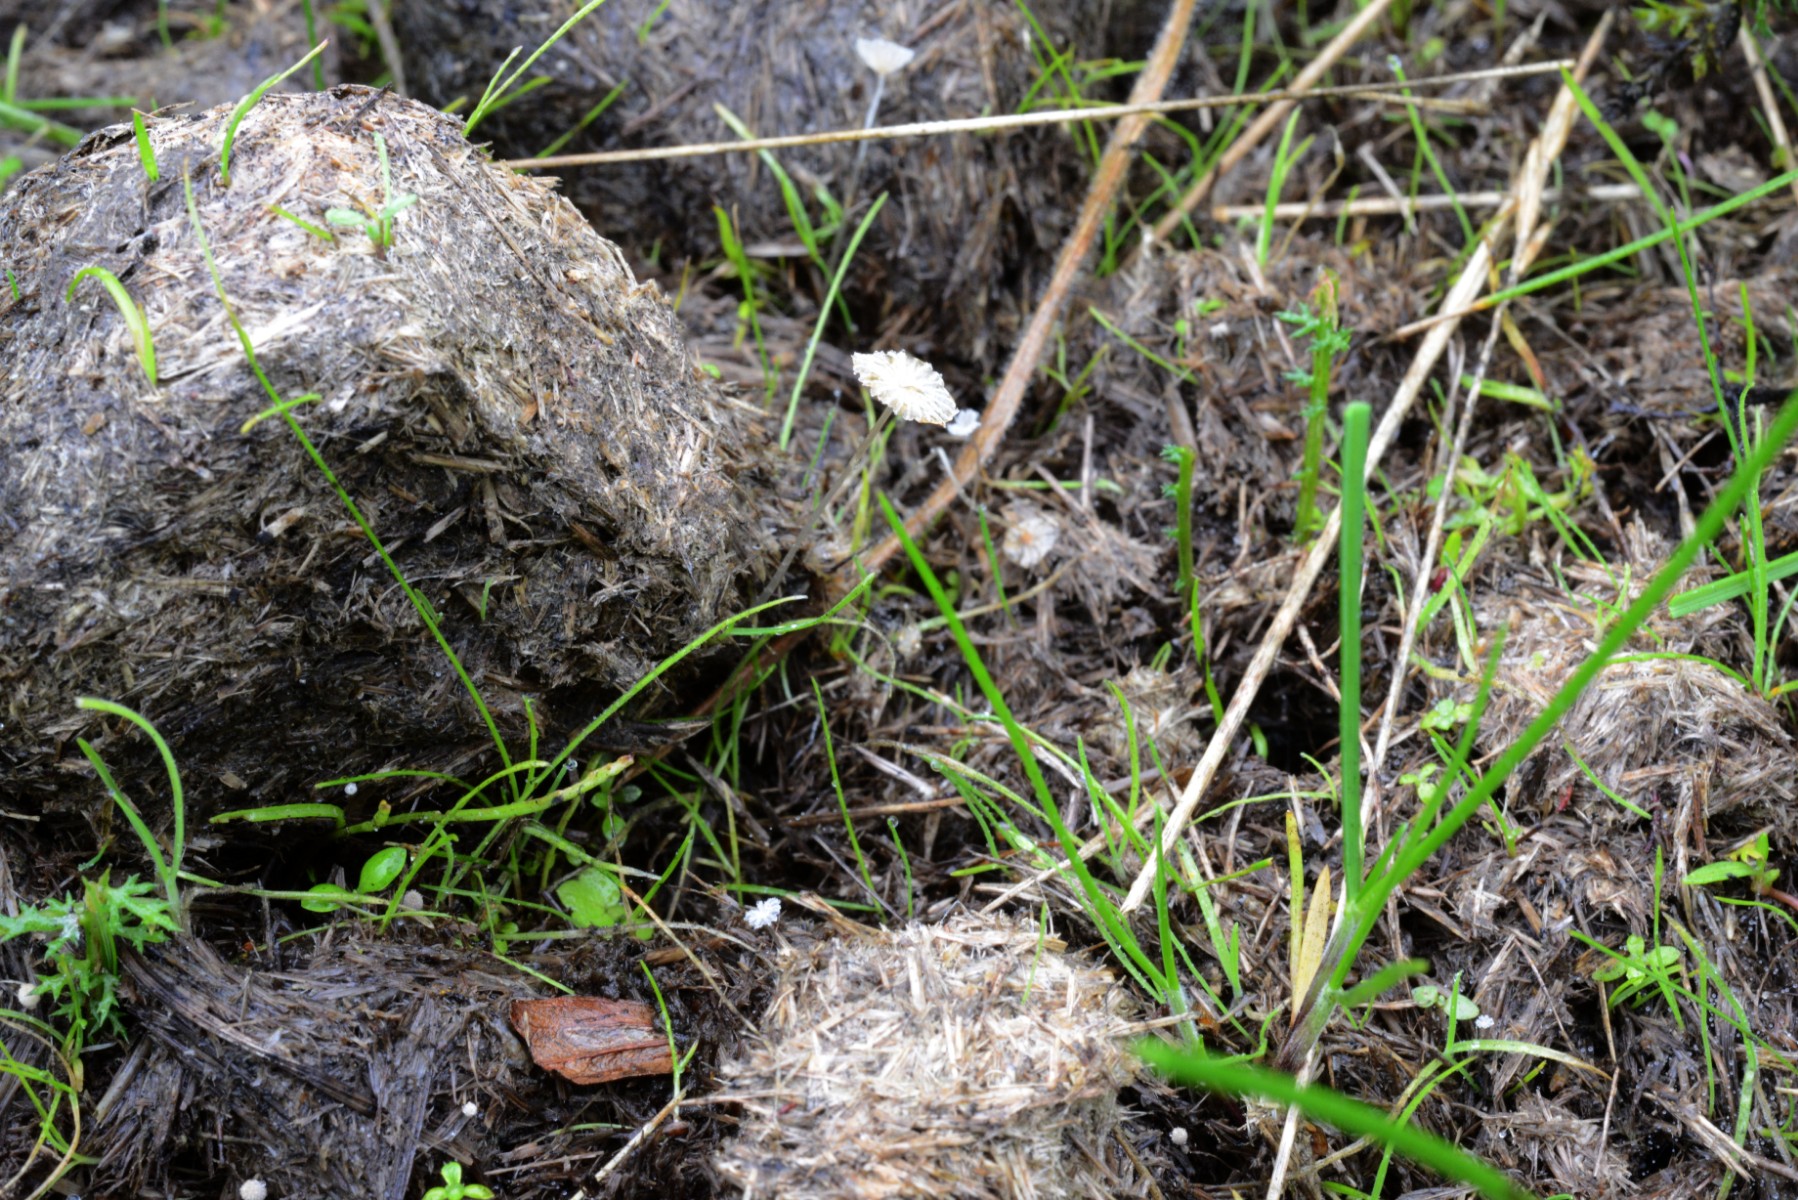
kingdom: Fungi
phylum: Basidiomycota
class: Agaricomycetes
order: Agaricales
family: Psathyrellaceae
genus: Parasola
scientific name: Parasola misera
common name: lillebitte hjulhat
